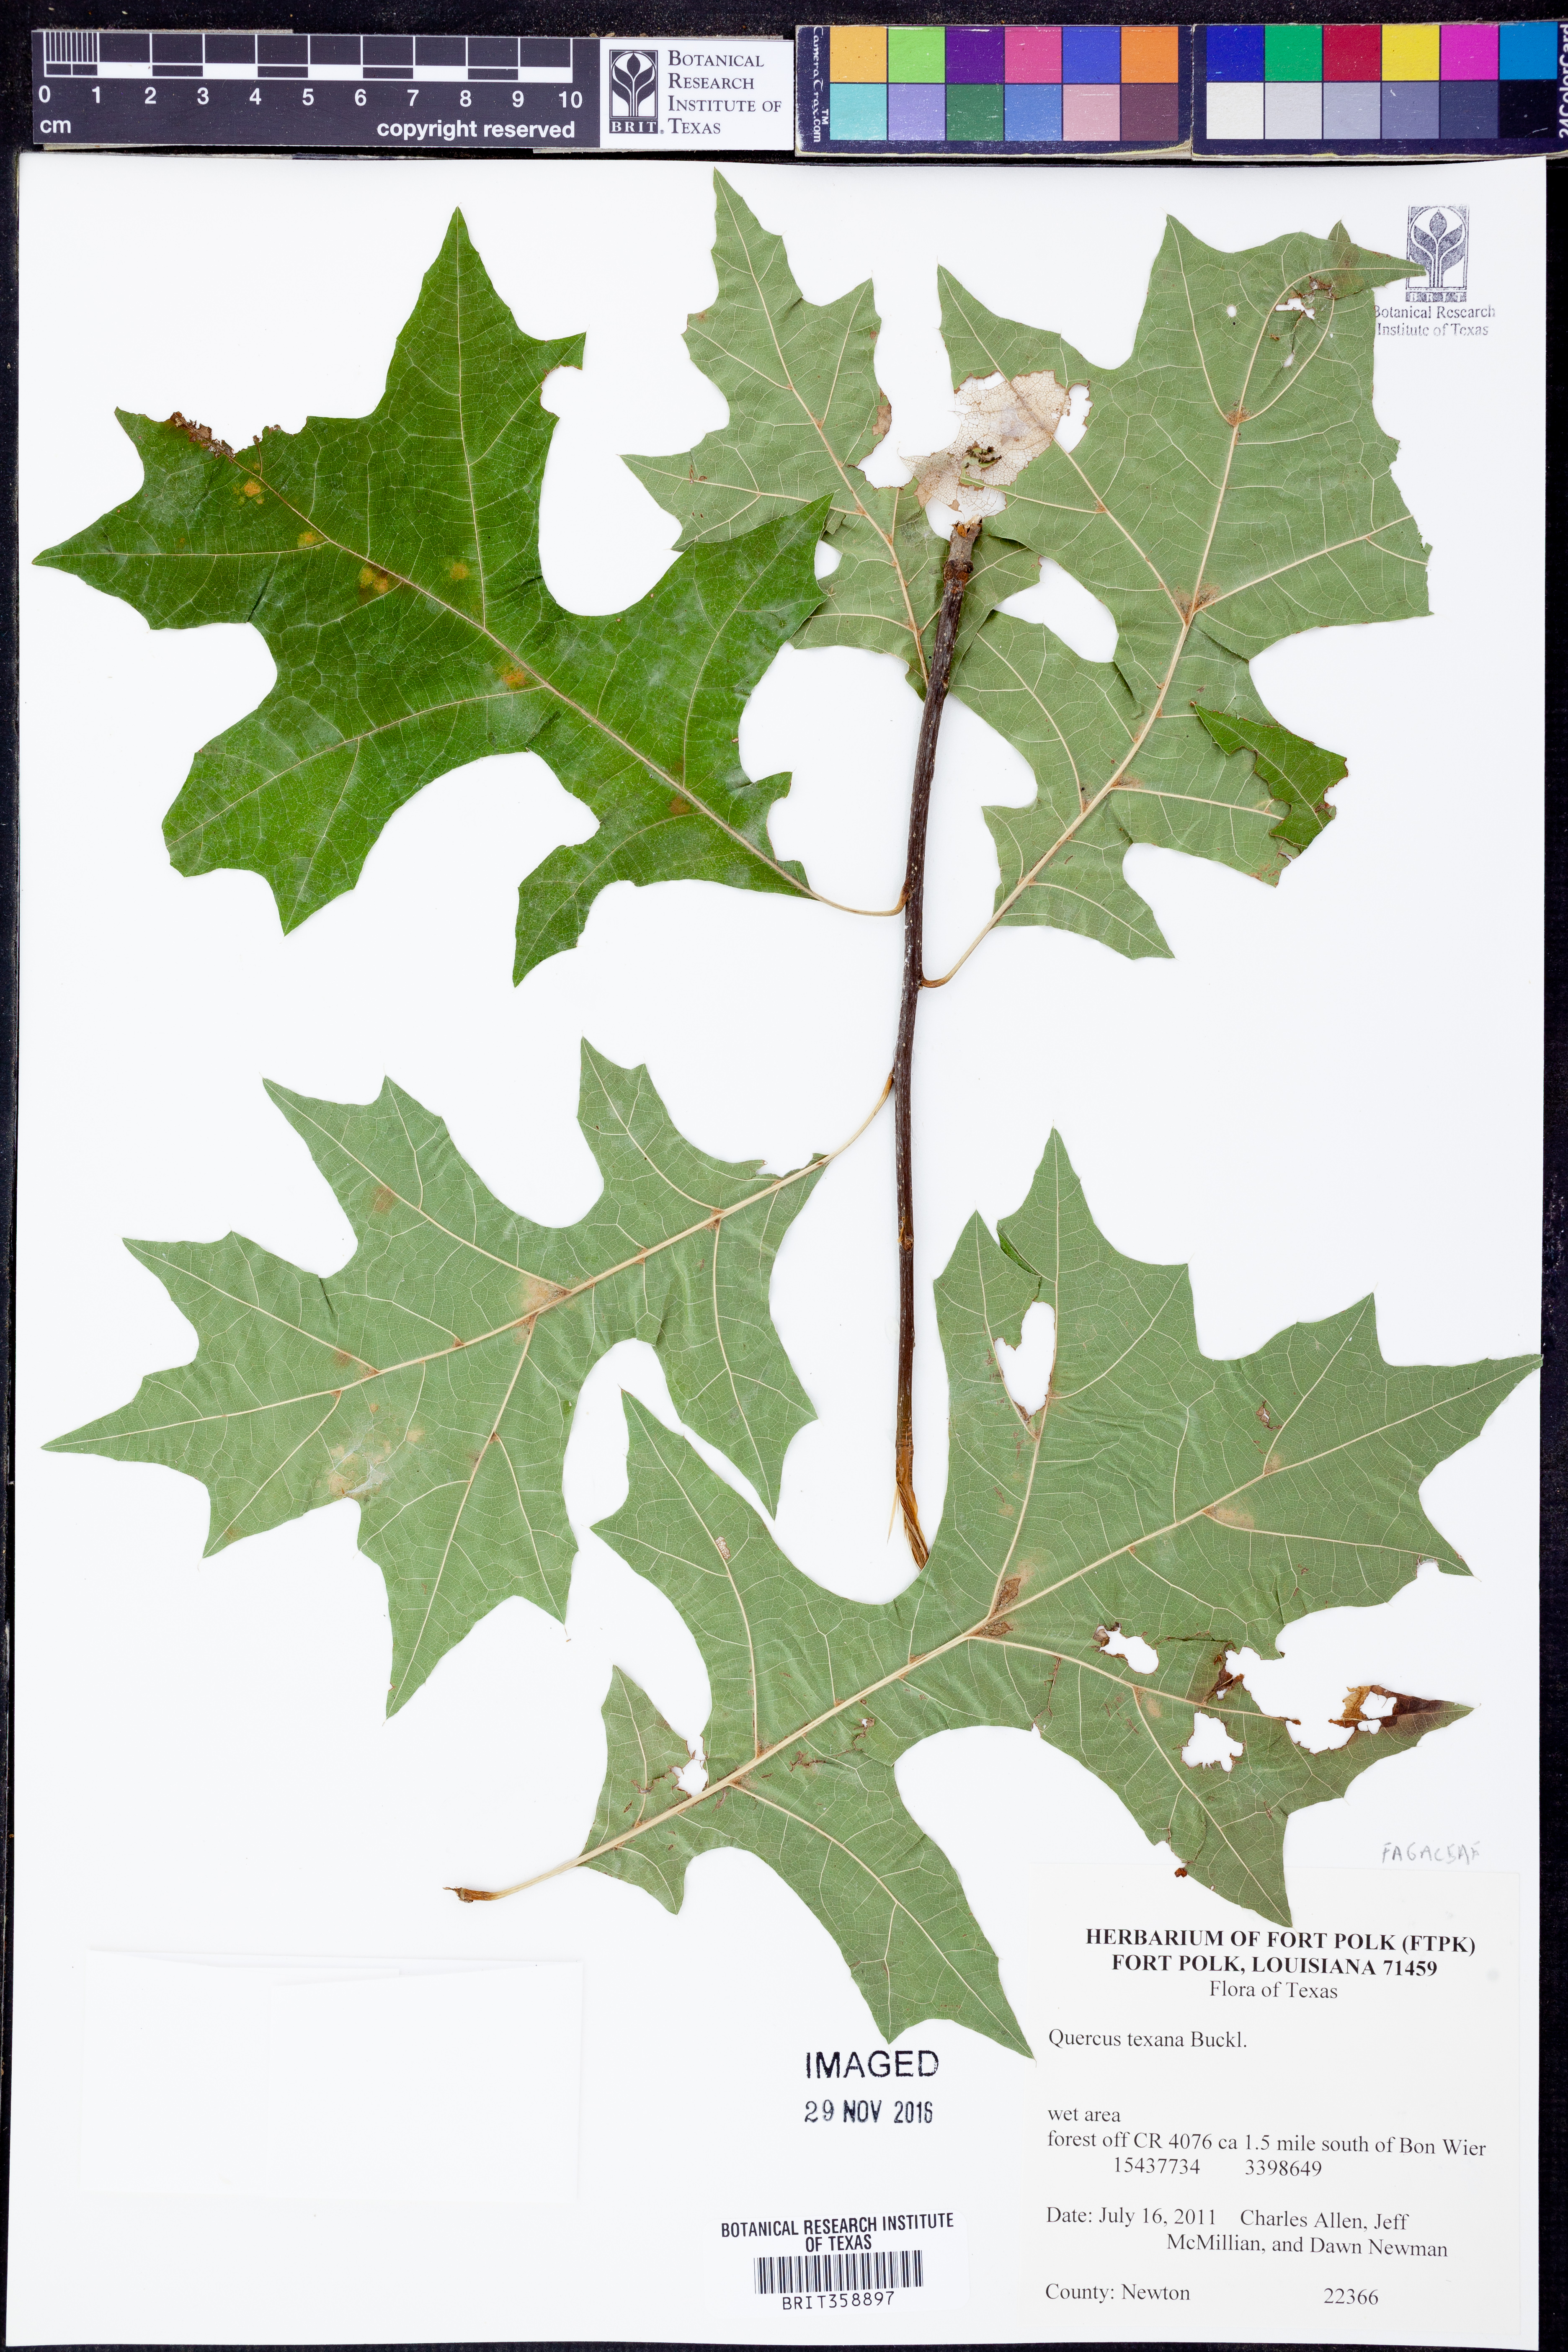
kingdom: Plantae
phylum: Tracheophyta
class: Magnoliopsida
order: Fagales
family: Fagaceae
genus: Quercus
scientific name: Quercus texana
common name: Nuttall oak
